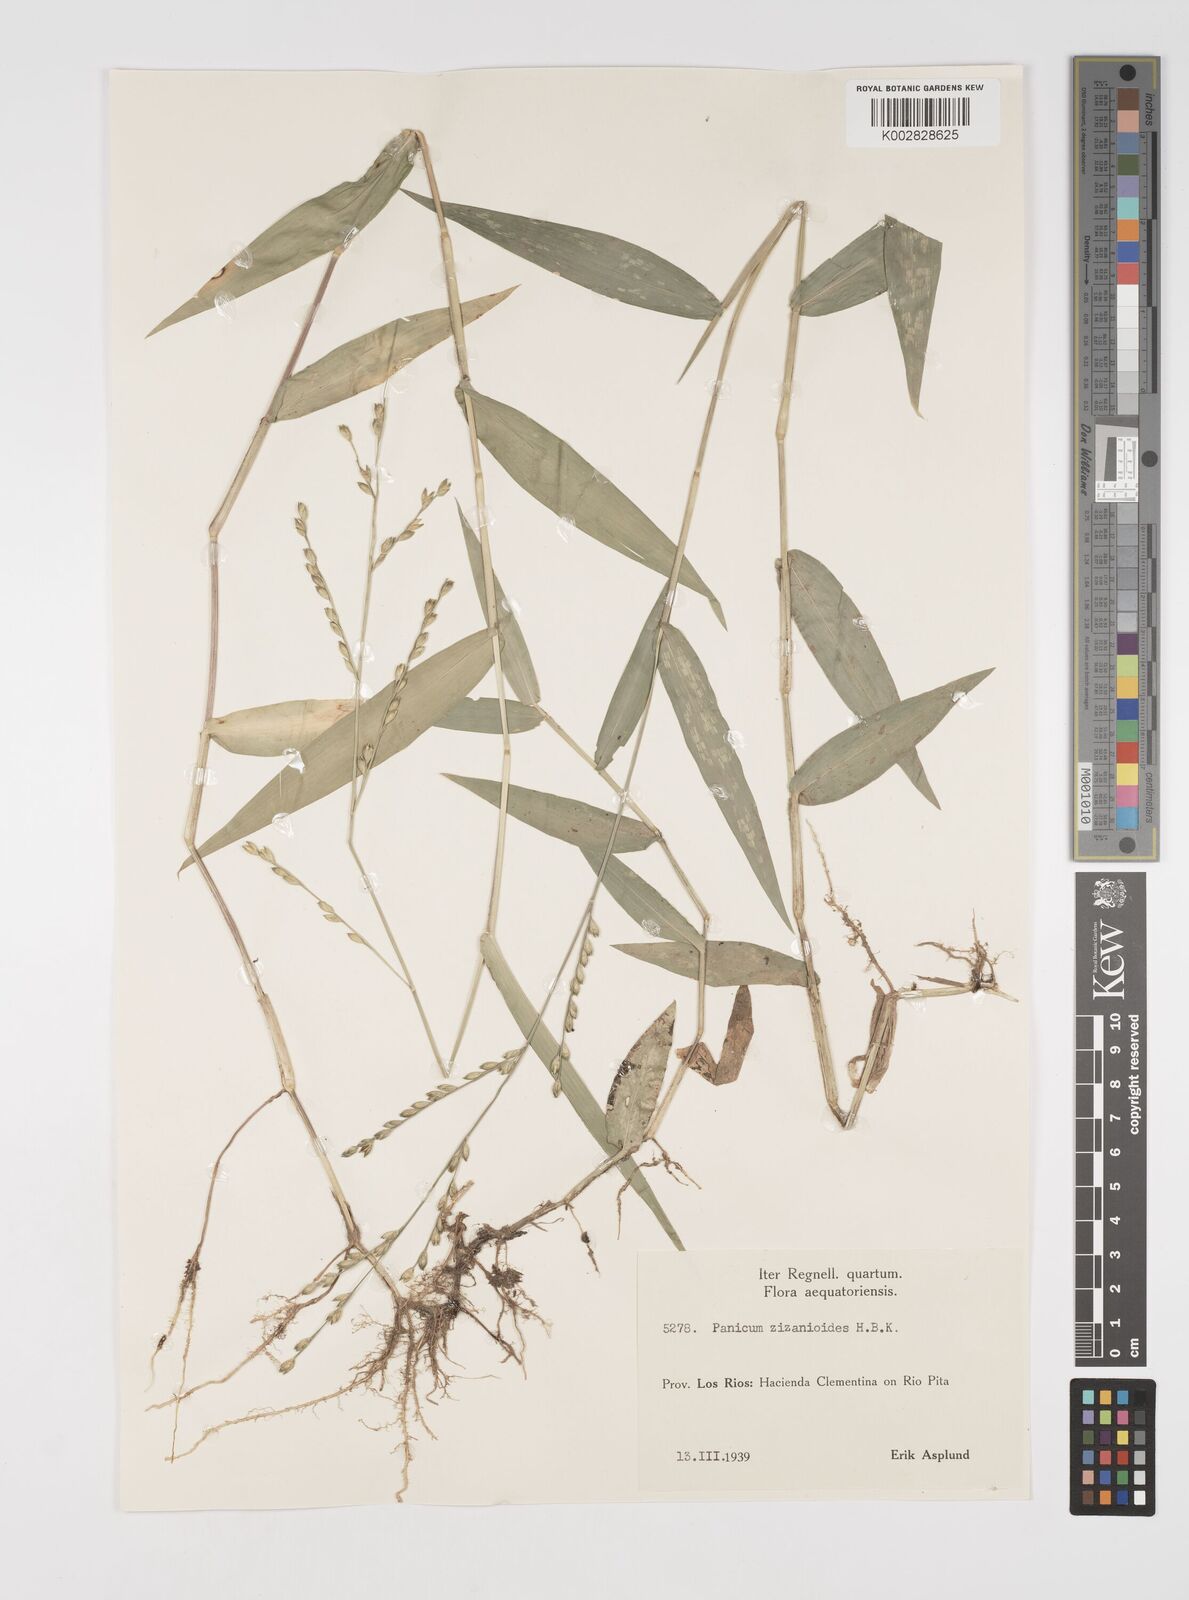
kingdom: Plantae
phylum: Tracheophyta
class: Liliopsida
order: Poales
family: Poaceae
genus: Acroceras
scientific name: Acroceras zizanioides
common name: Oat grass
